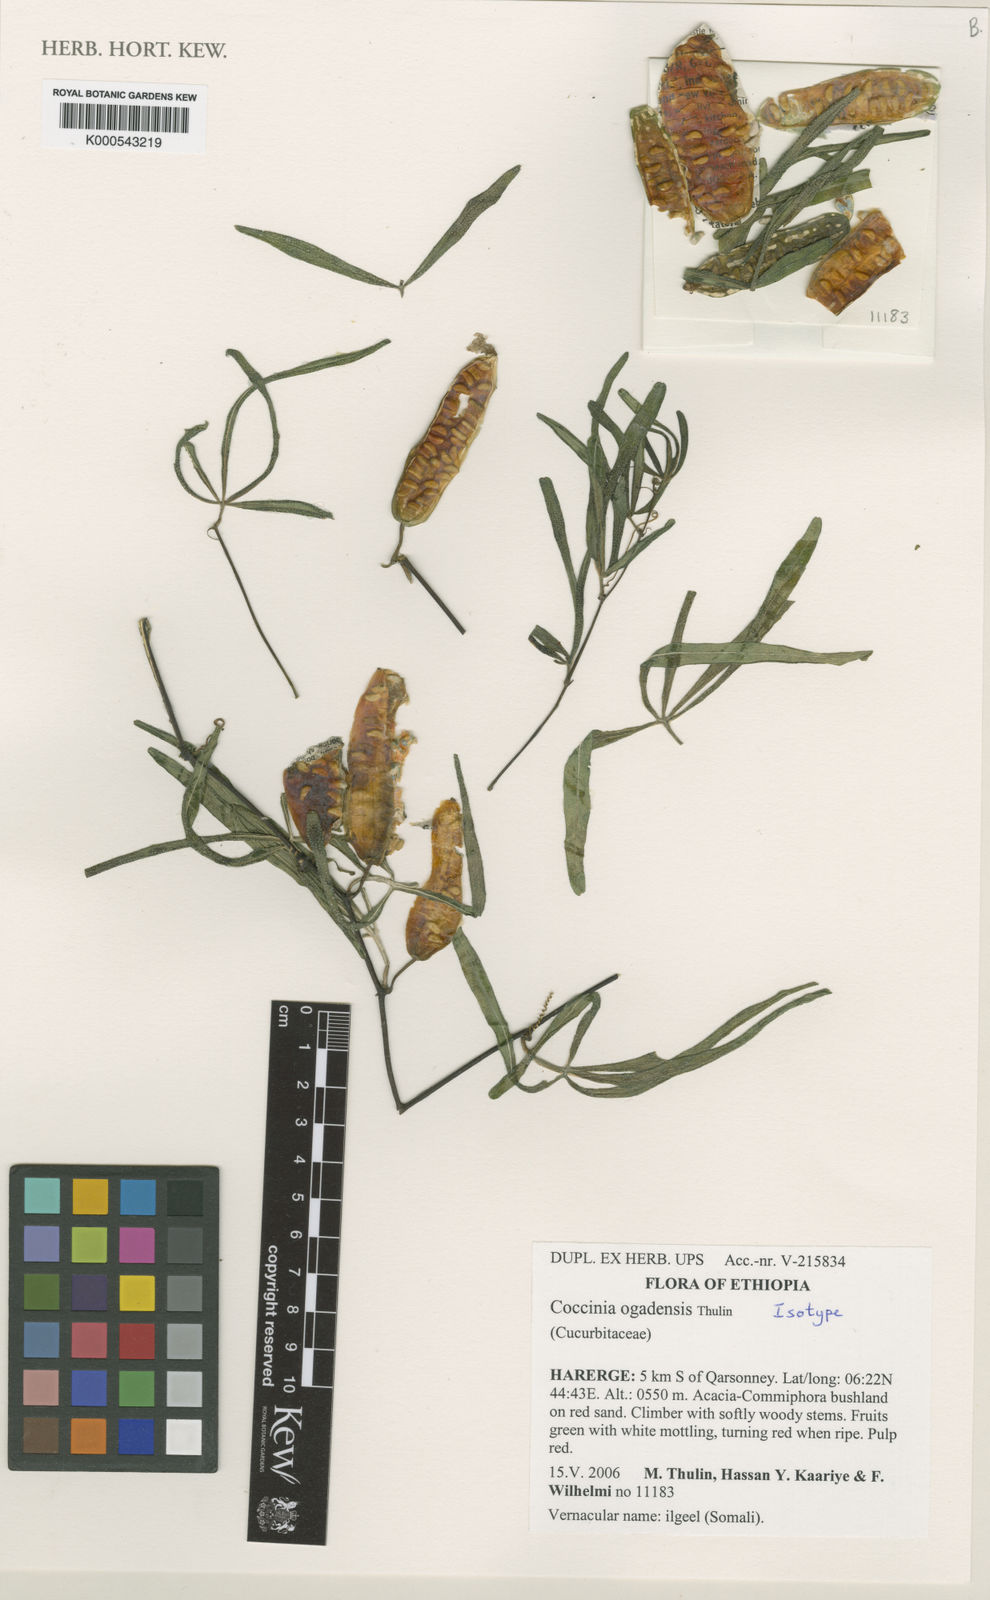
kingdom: Plantae
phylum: Tracheophyta
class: Magnoliopsida
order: Cucurbitales
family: Cucurbitaceae
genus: Coccinia
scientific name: Coccinia ogadensis
